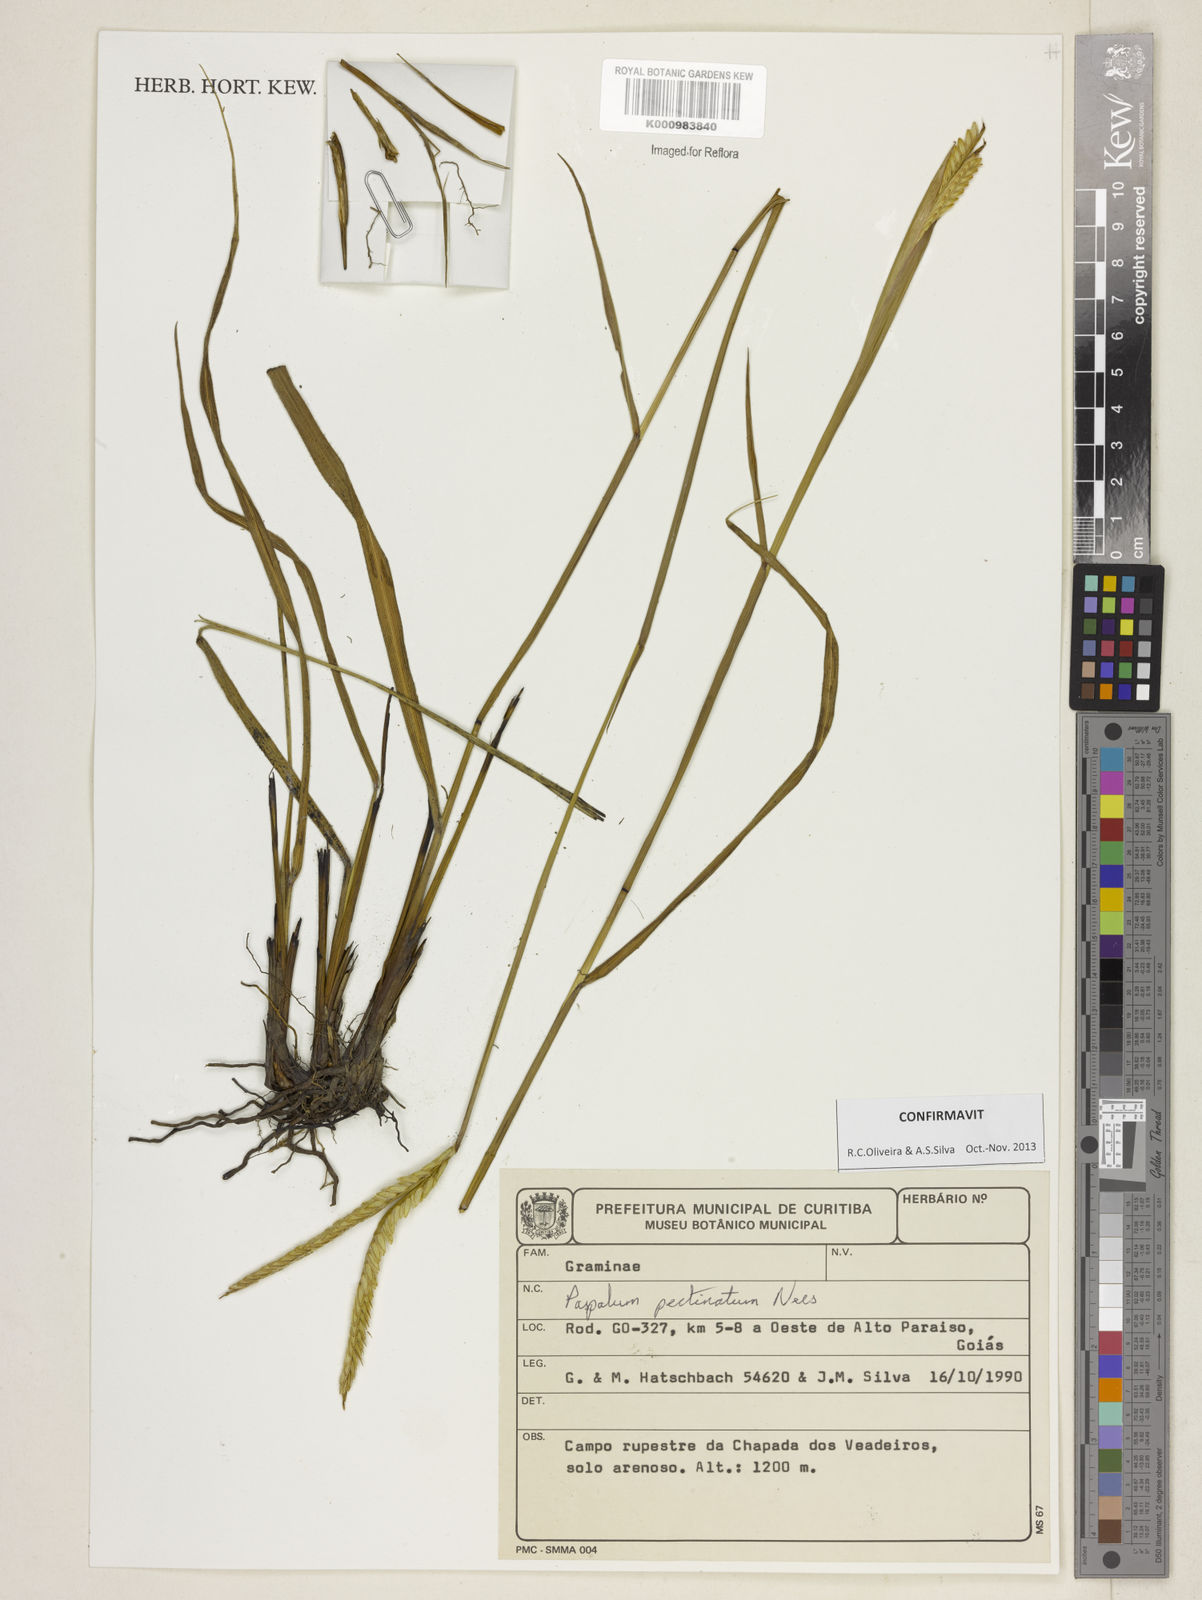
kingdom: Plantae
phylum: Tracheophyta
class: Liliopsida
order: Poales
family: Poaceae
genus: Paspalum
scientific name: Paspalum
